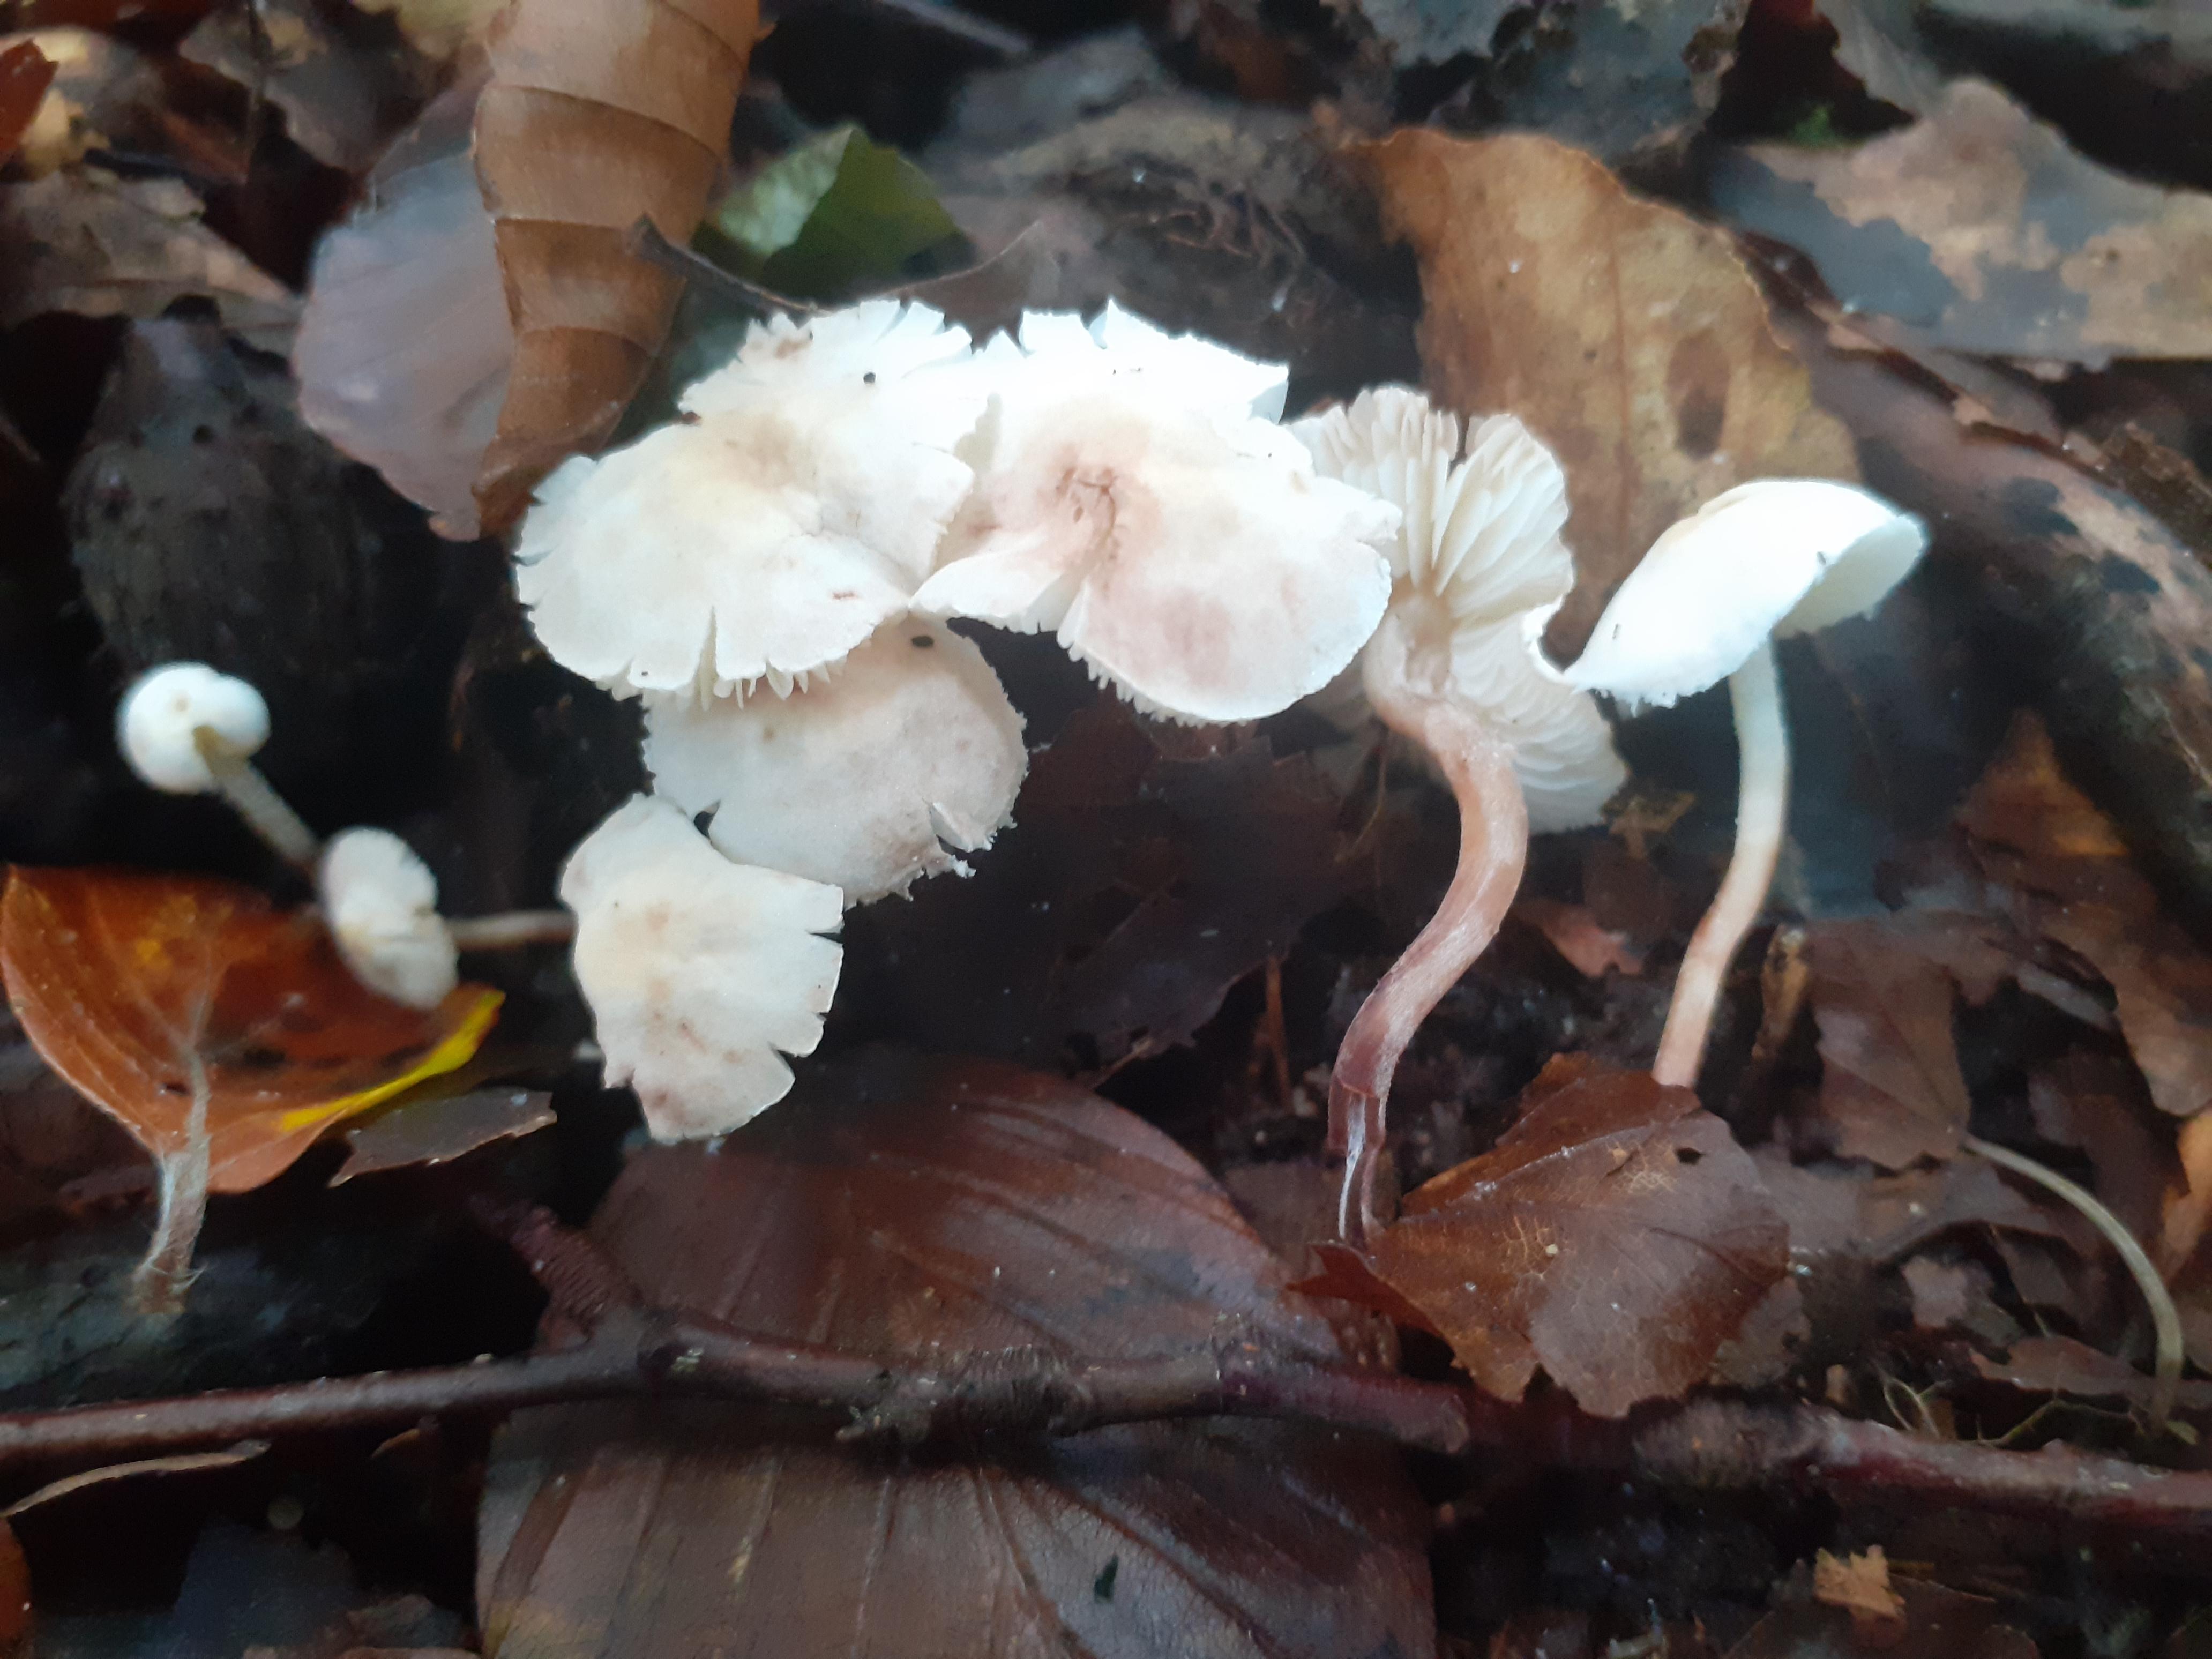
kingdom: Fungi
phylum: Basidiomycota
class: Agaricomycetes
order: Agaricales
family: Agaricaceae
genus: Cystolepiota
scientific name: Cystolepiota seminuda
